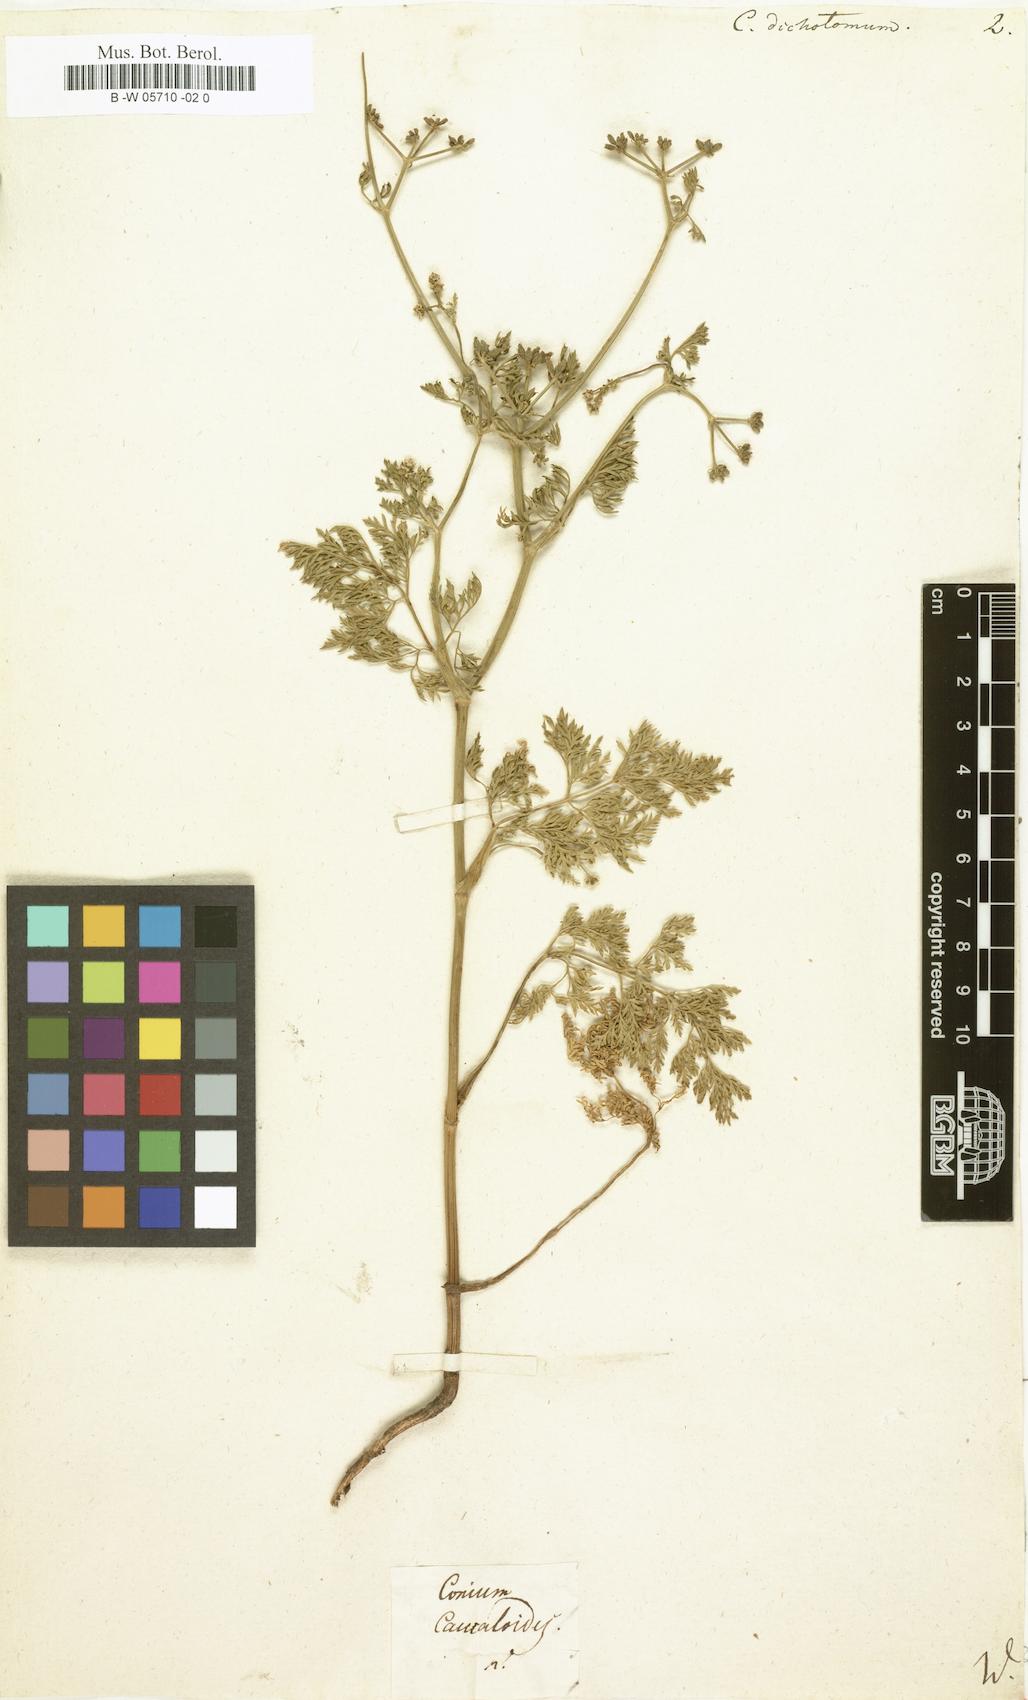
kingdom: Plantae
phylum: Tracheophyta
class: Magnoliopsida
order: Apiales
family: Apiaceae
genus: Krubera
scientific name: Krubera peregrina
